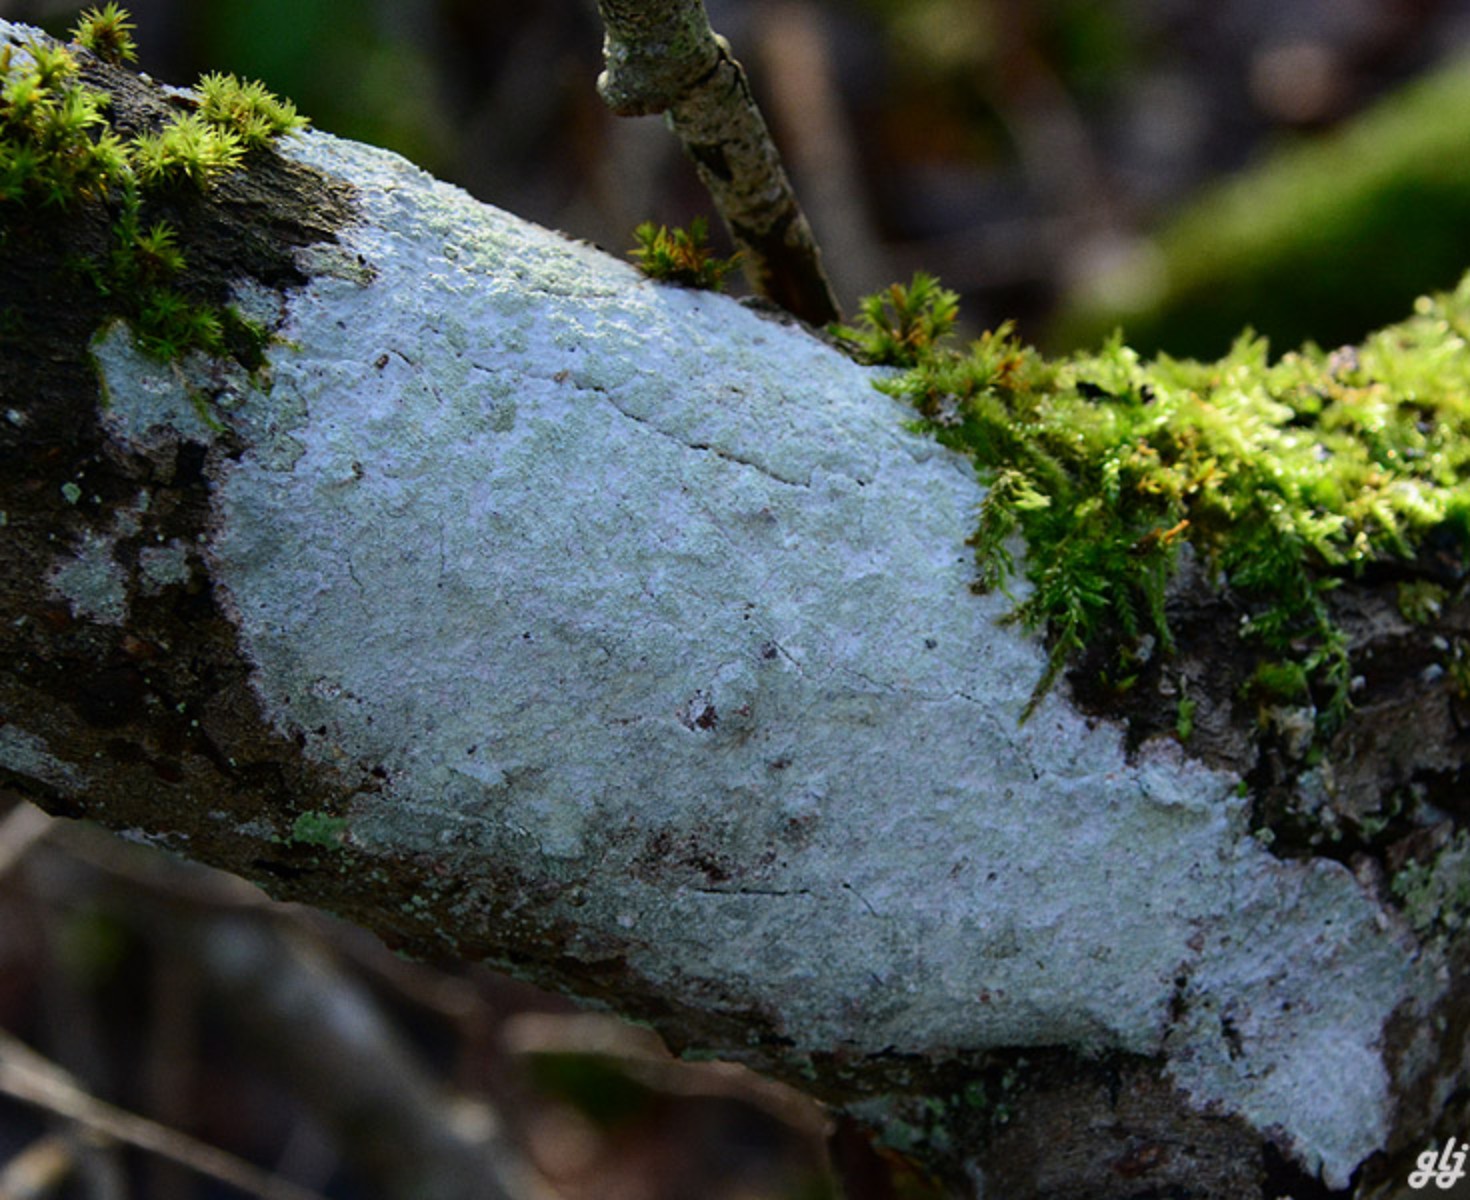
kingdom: Fungi
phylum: Ascomycota
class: Lecanoromycetes
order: Ostropales
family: Phlyctidaceae
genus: Phlyctis
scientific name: Phlyctis argena
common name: almindelig sølvlav
